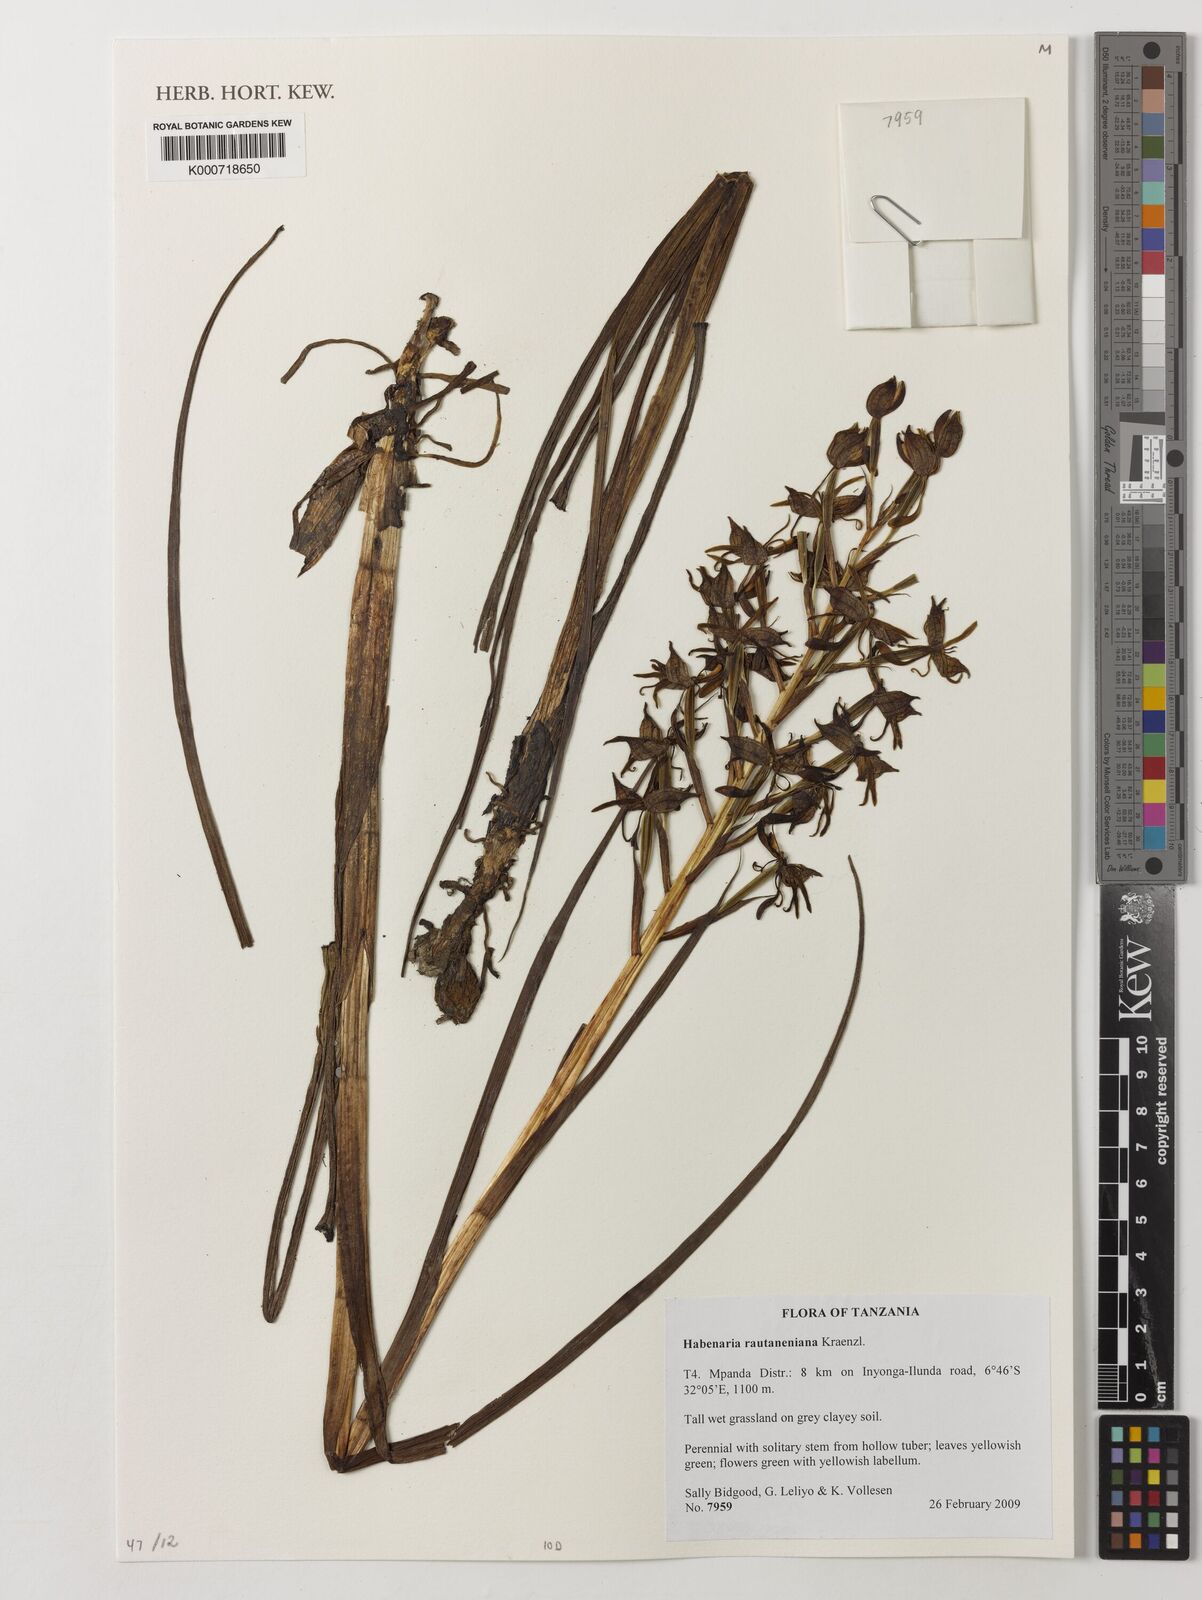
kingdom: Plantae
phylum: Tracheophyta
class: Liliopsida
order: Asparagales
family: Orchidaceae
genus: Habenaria
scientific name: Habenaria rautaneniana
